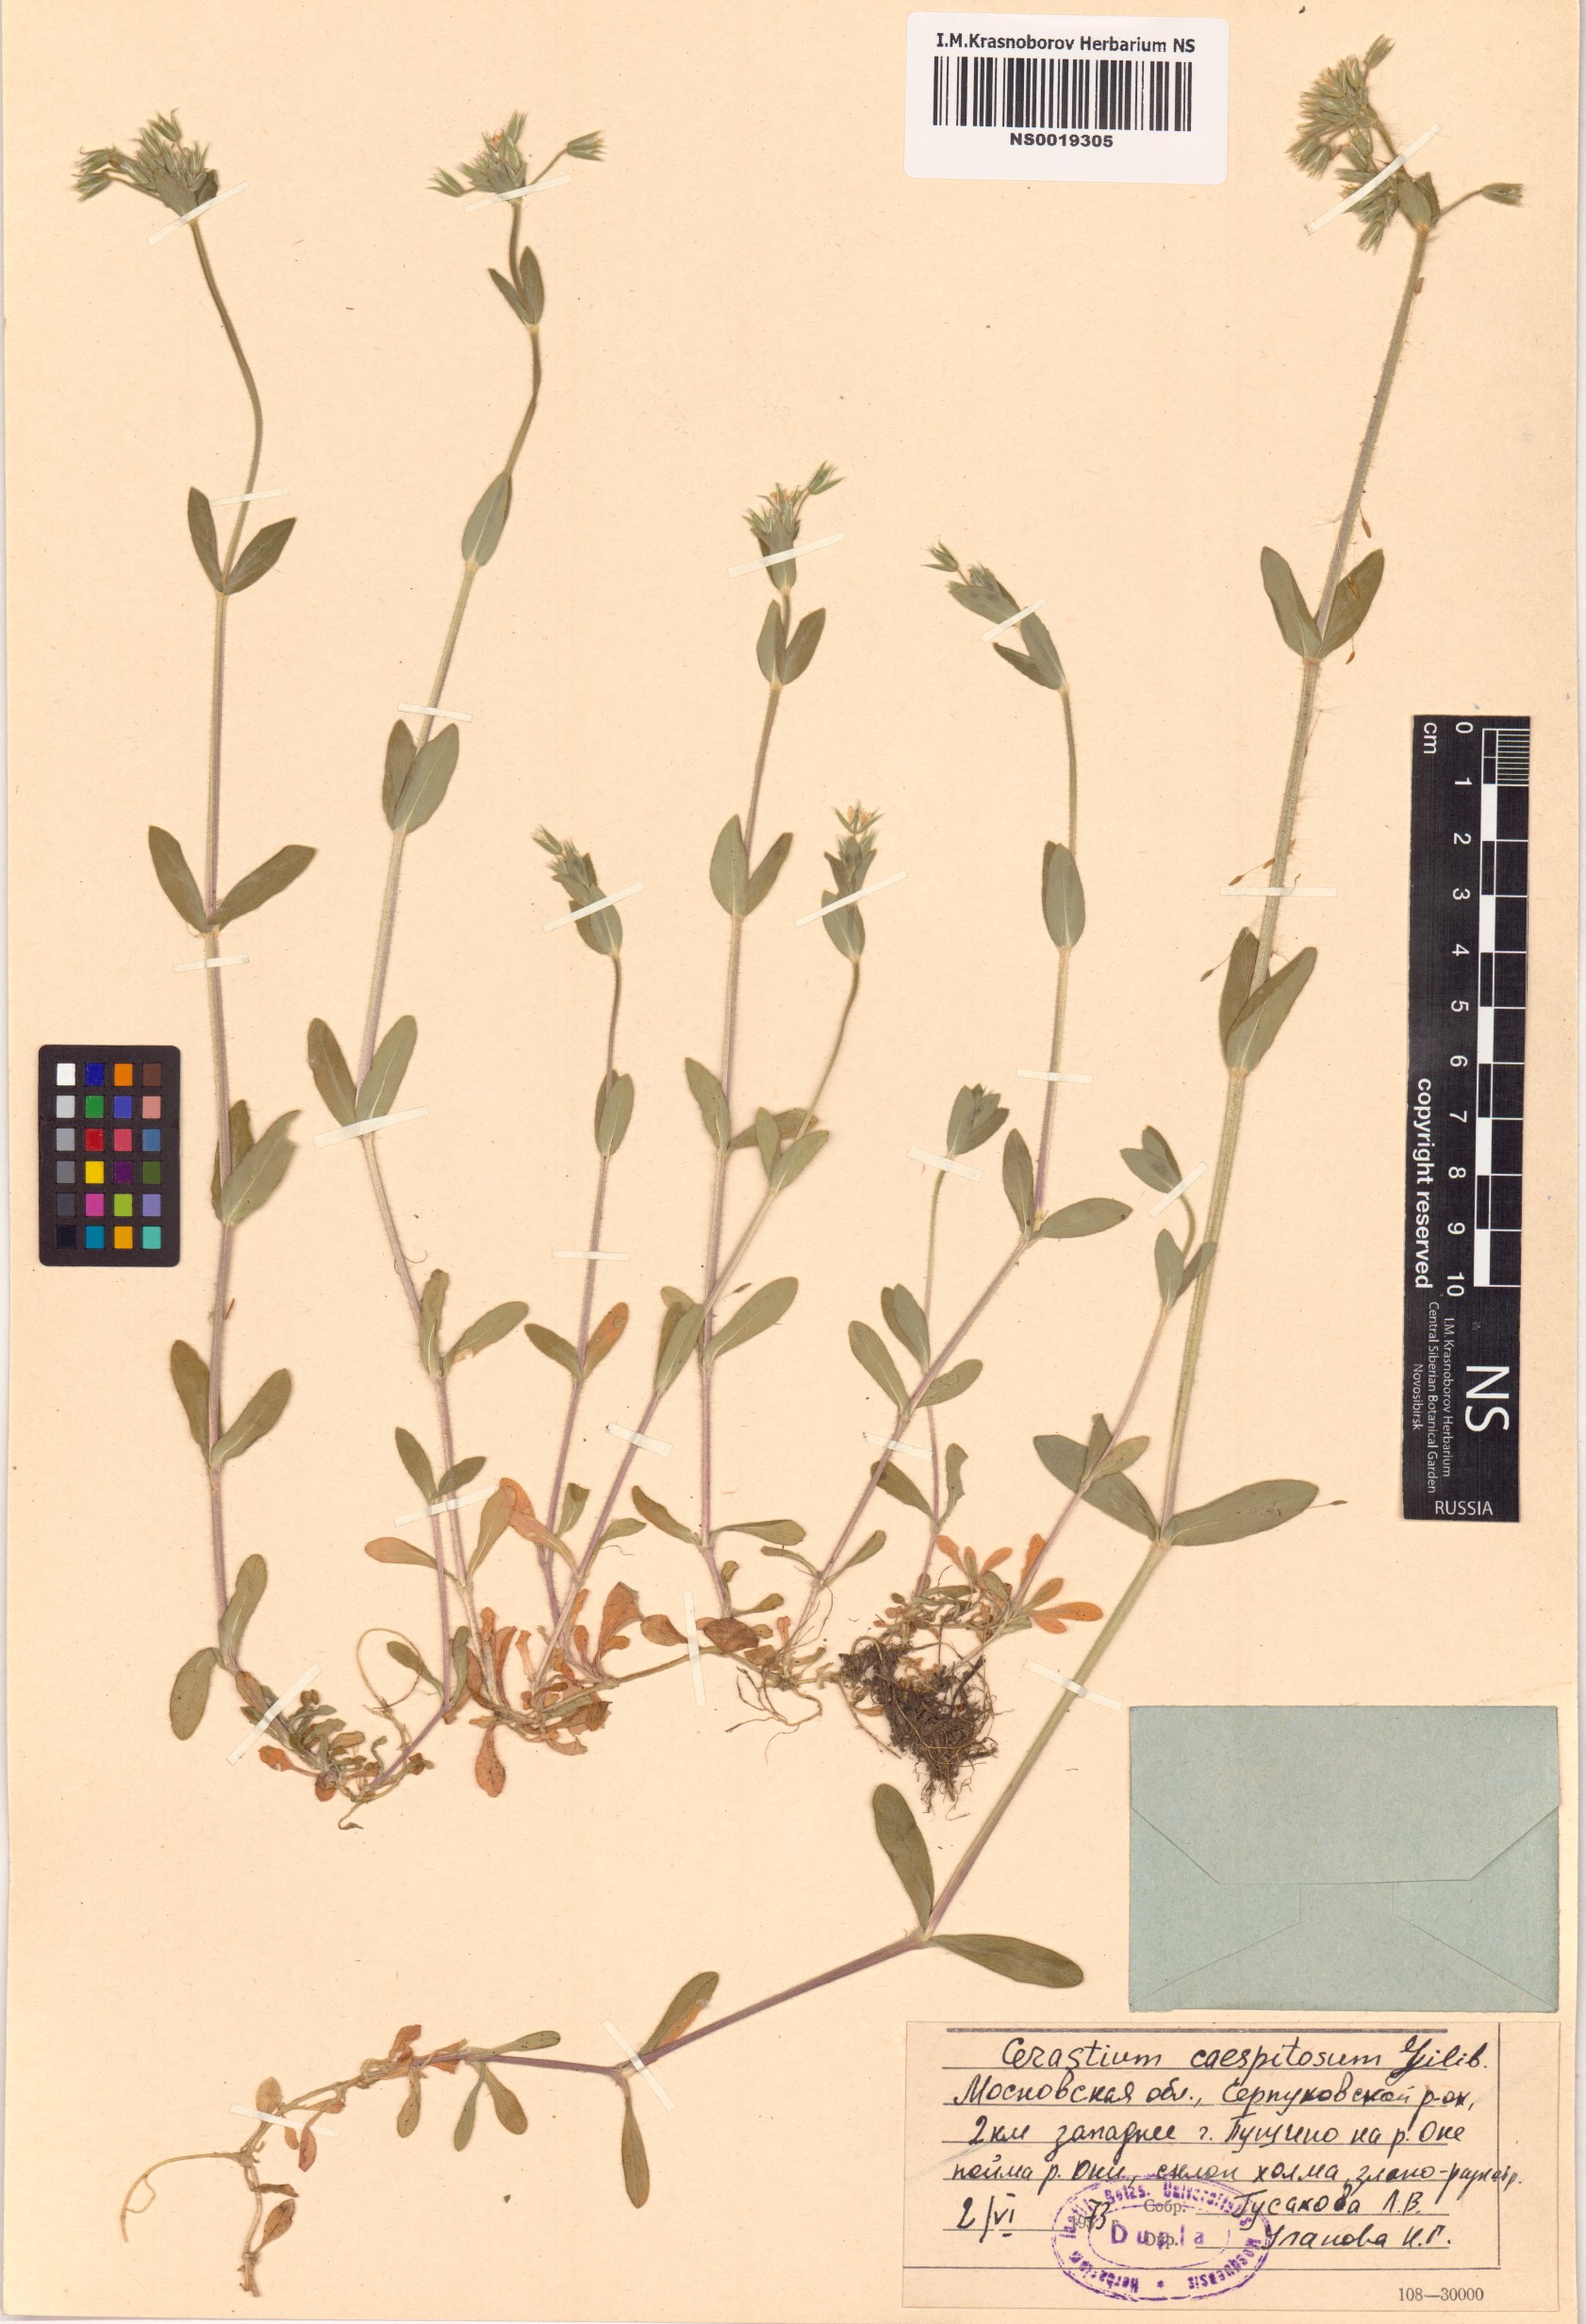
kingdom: Plantae
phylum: Tracheophyta
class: Magnoliopsida
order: Caryophyllales
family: Caryophyllaceae
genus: Cerastium
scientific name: Cerastium
